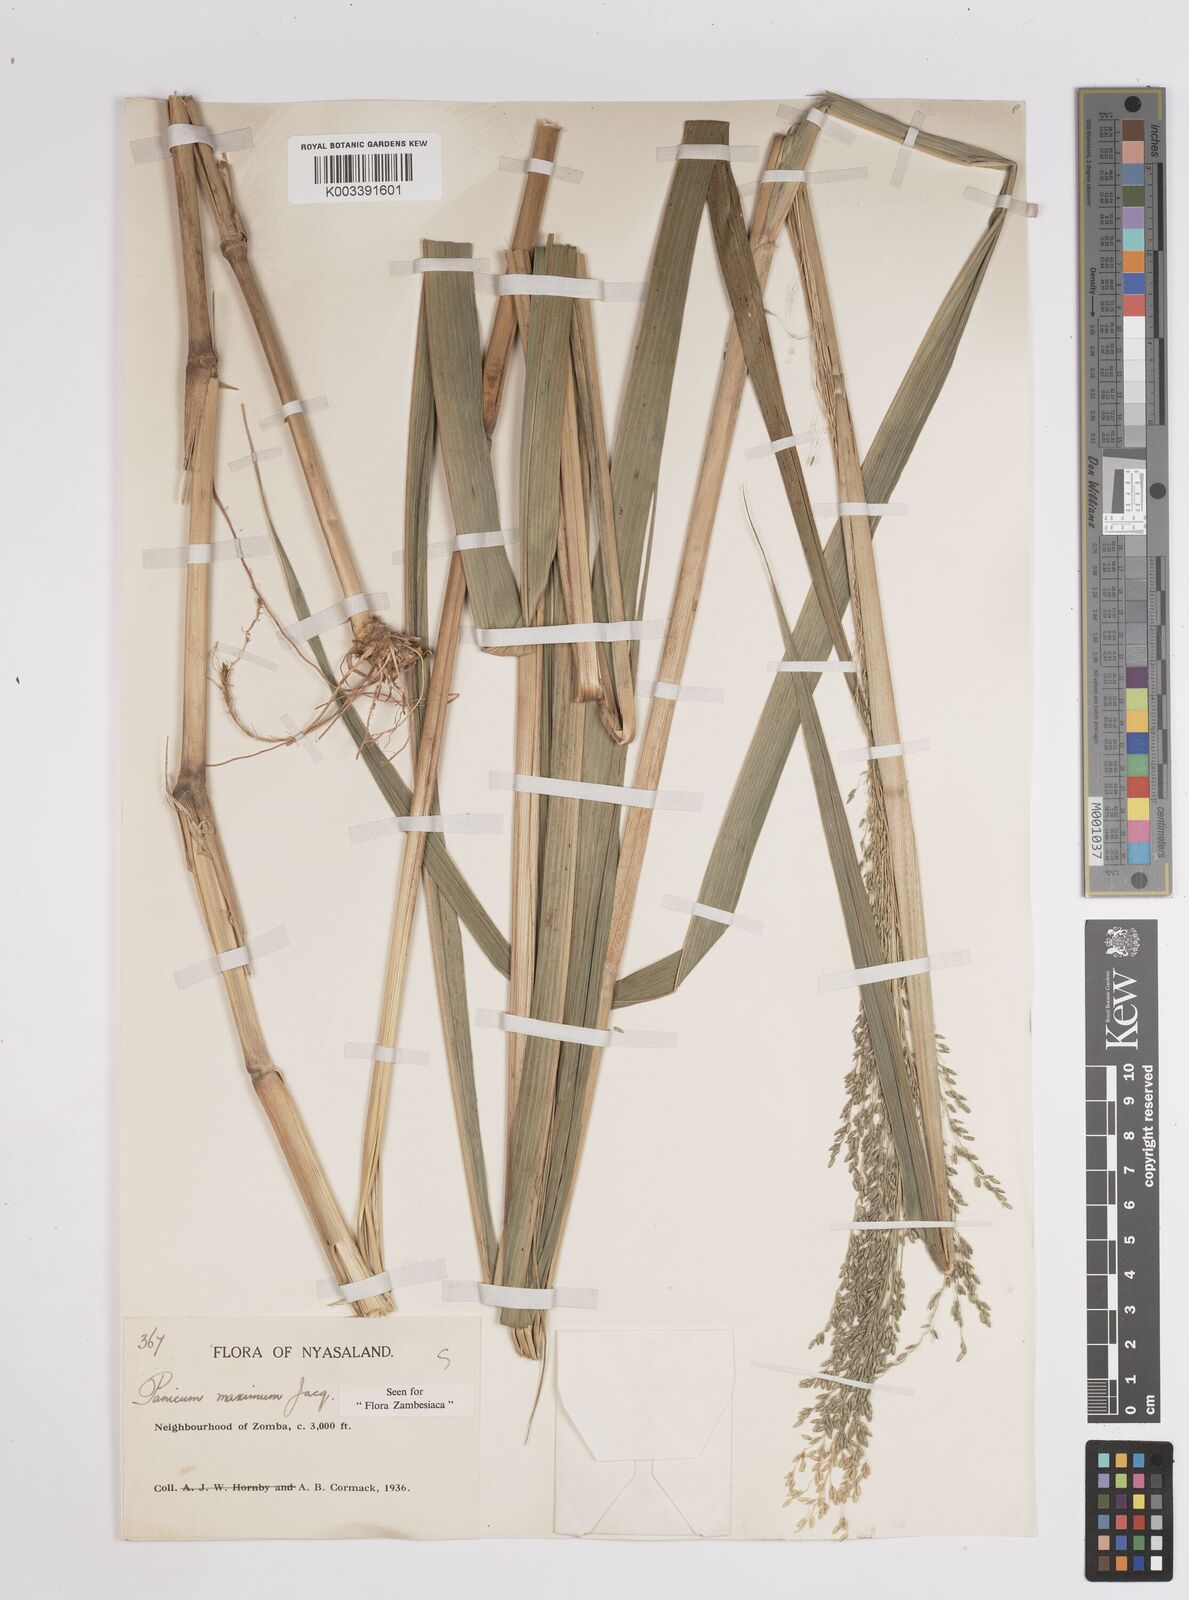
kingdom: Plantae
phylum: Tracheophyta
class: Liliopsida
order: Poales
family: Poaceae
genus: Megathyrsus
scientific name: Megathyrsus maximus
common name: Guineagrass
